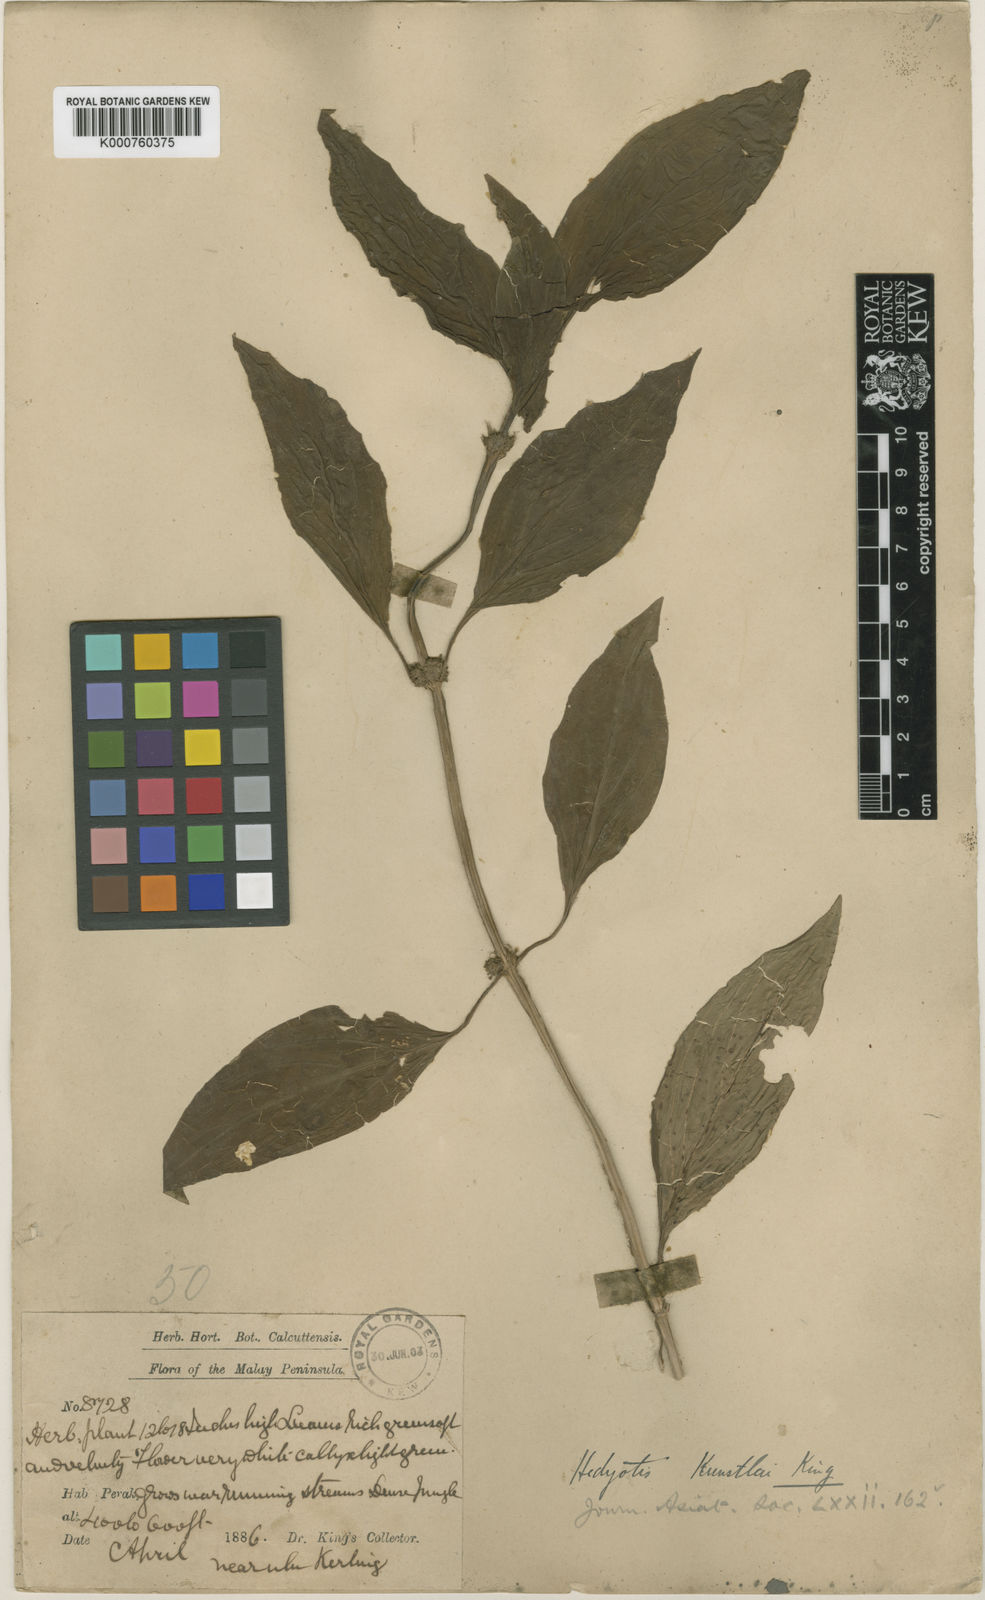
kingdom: Plantae
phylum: Tracheophyta
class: Magnoliopsida
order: Gentianales
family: Rubiaceae
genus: Hedyotis
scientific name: Hedyotis macrophylla
